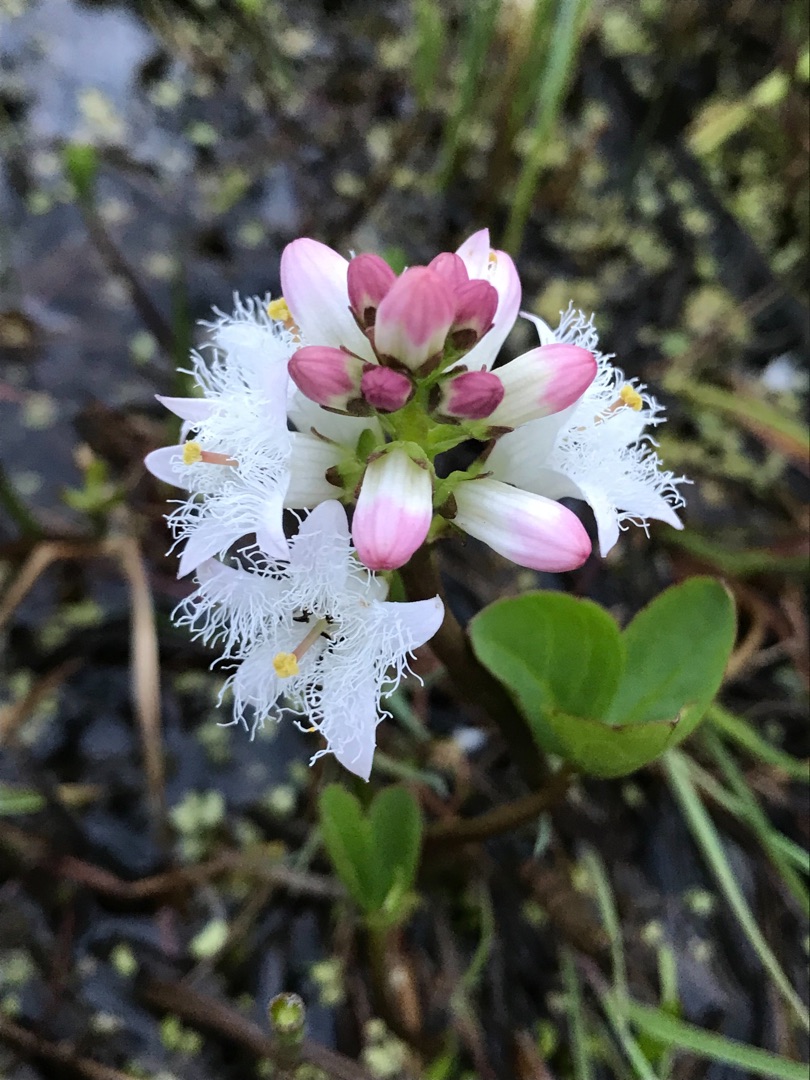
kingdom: Plantae
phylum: Tracheophyta
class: Magnoliopsida
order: Asterales
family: Menyanthaceae
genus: Menyanthes
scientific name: Menyanthes trifoliata
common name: Bukkeblad
